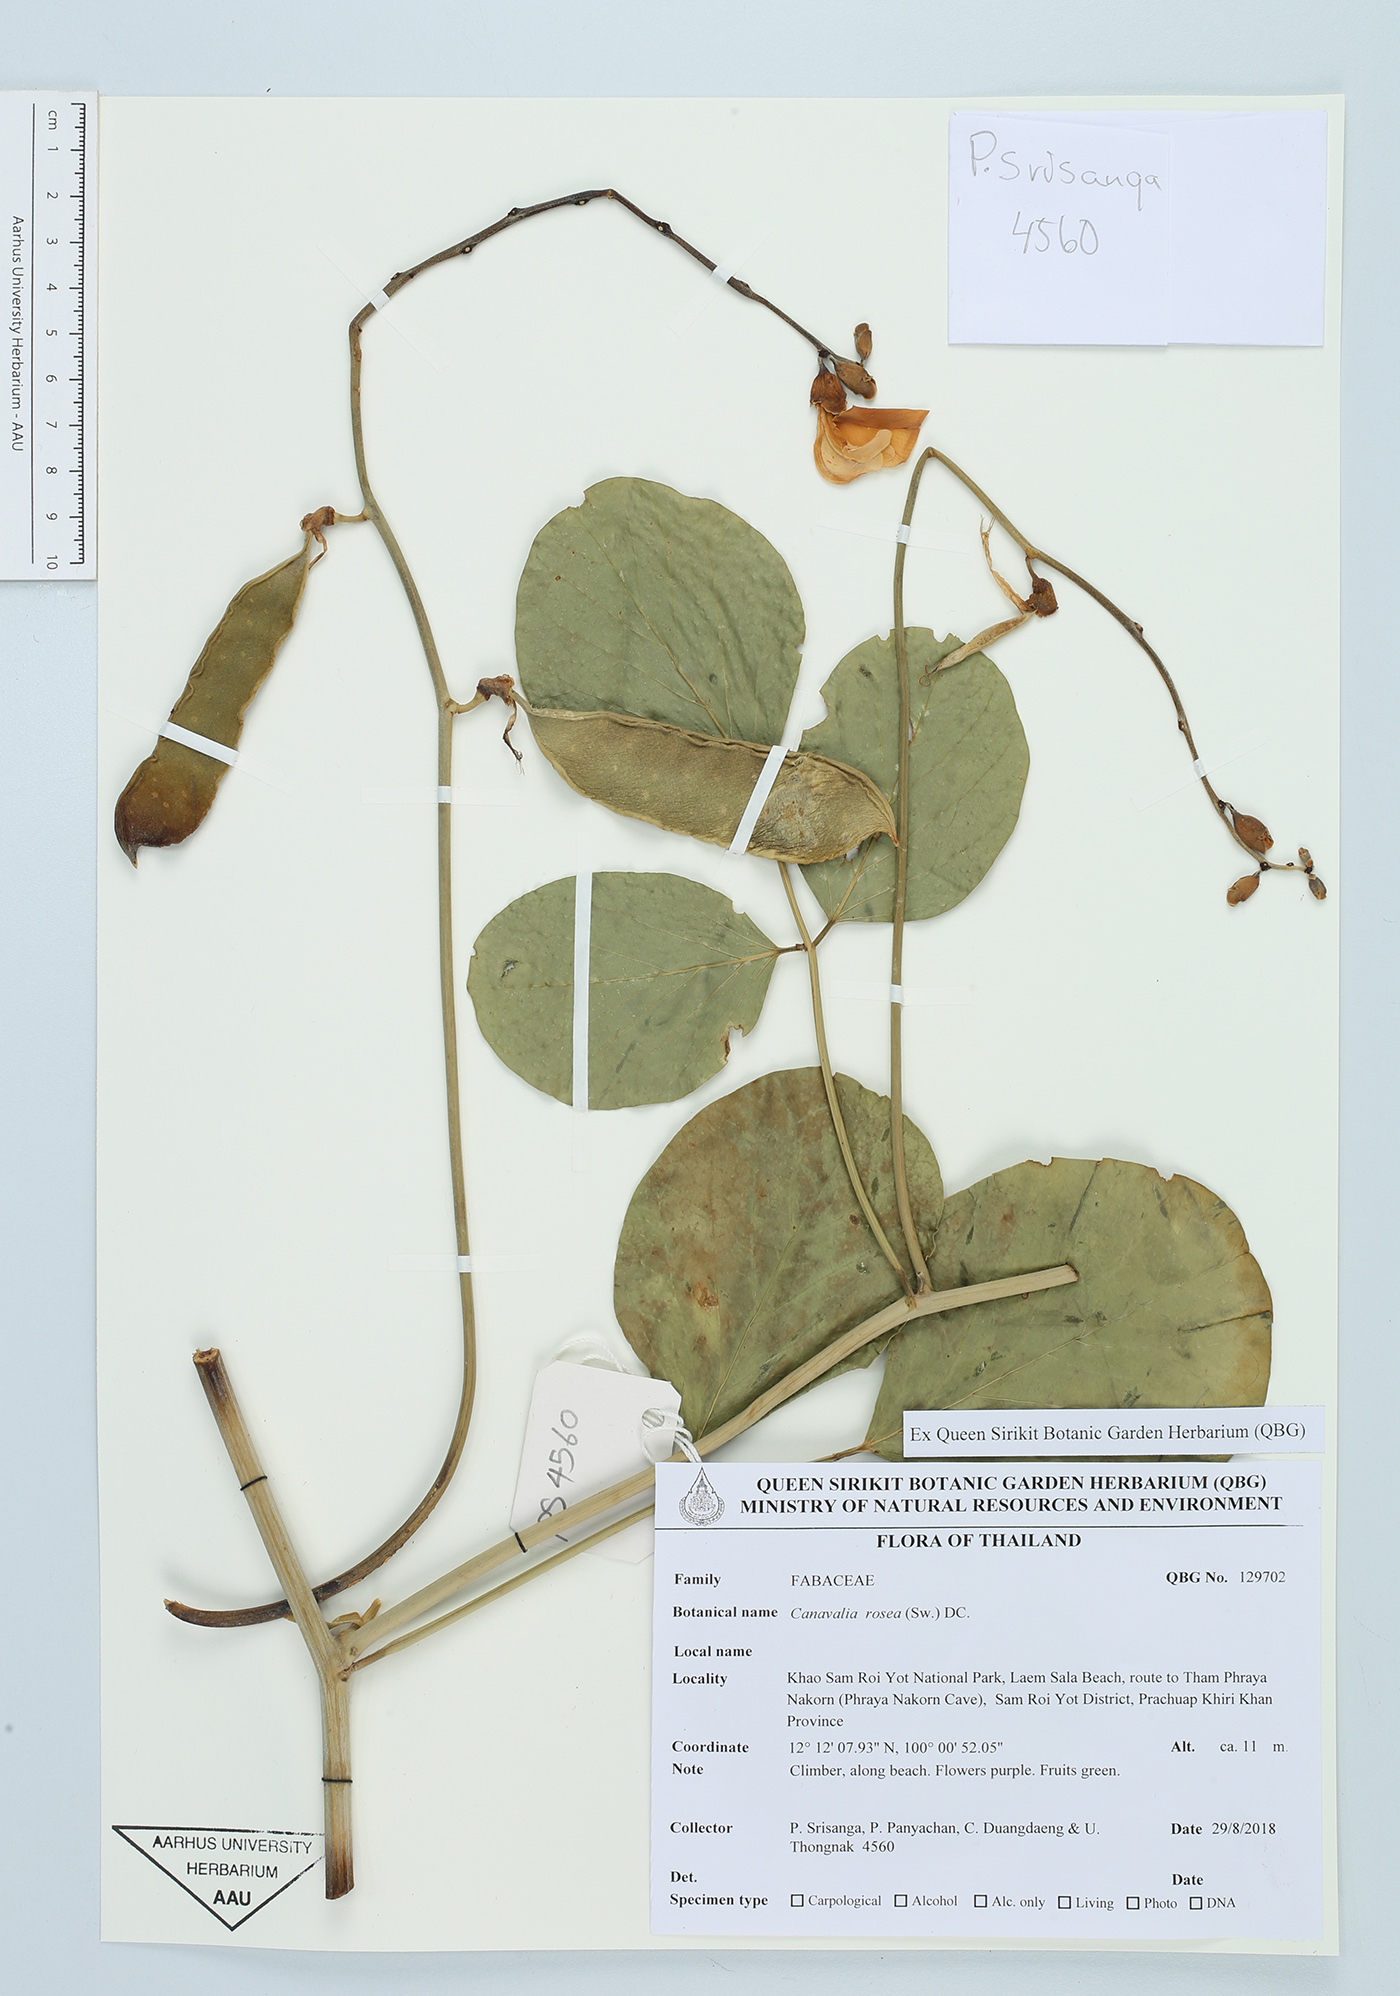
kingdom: Plantae
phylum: Tracheophyta
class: Magnoliopsida
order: Fabales
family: Fabaceae
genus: Canavalia
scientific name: Canavalia rosea
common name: Beach-bean
